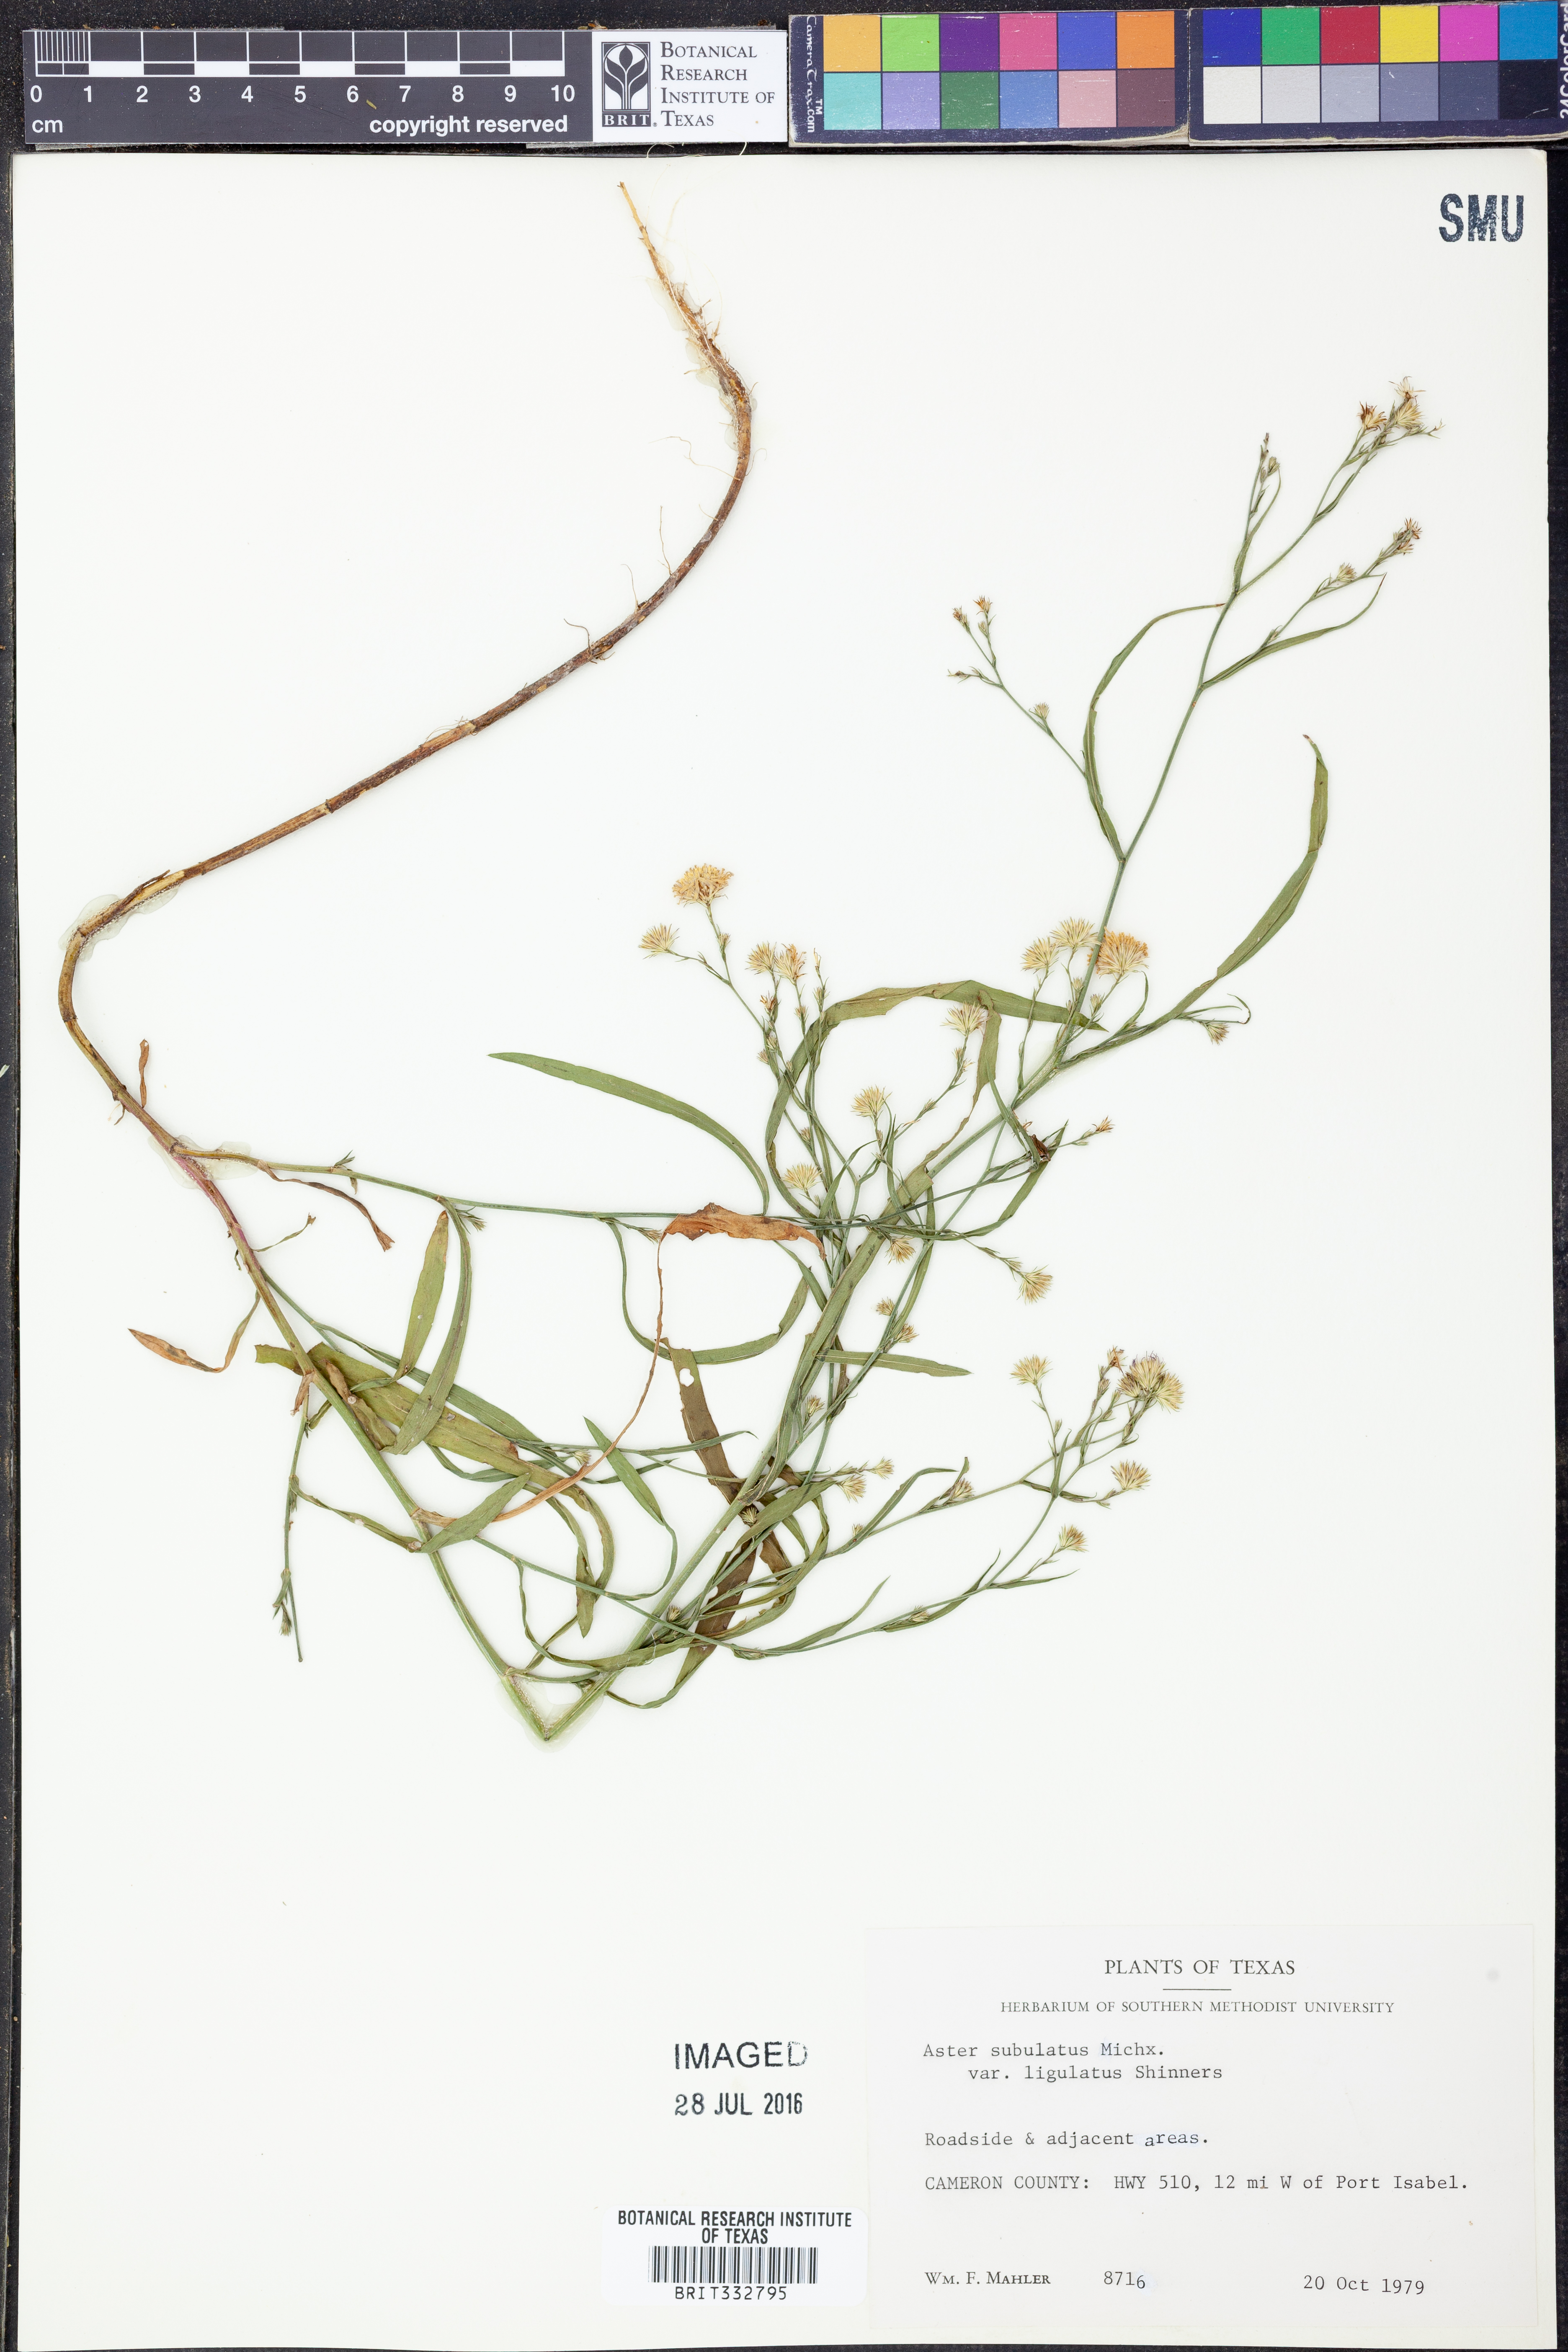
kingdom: Plantae
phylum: Tracheophyta
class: Magnoliopsida
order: Asterales
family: Asteraceae
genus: Symphyotrichum
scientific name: Symphyotrichum divaricatum
